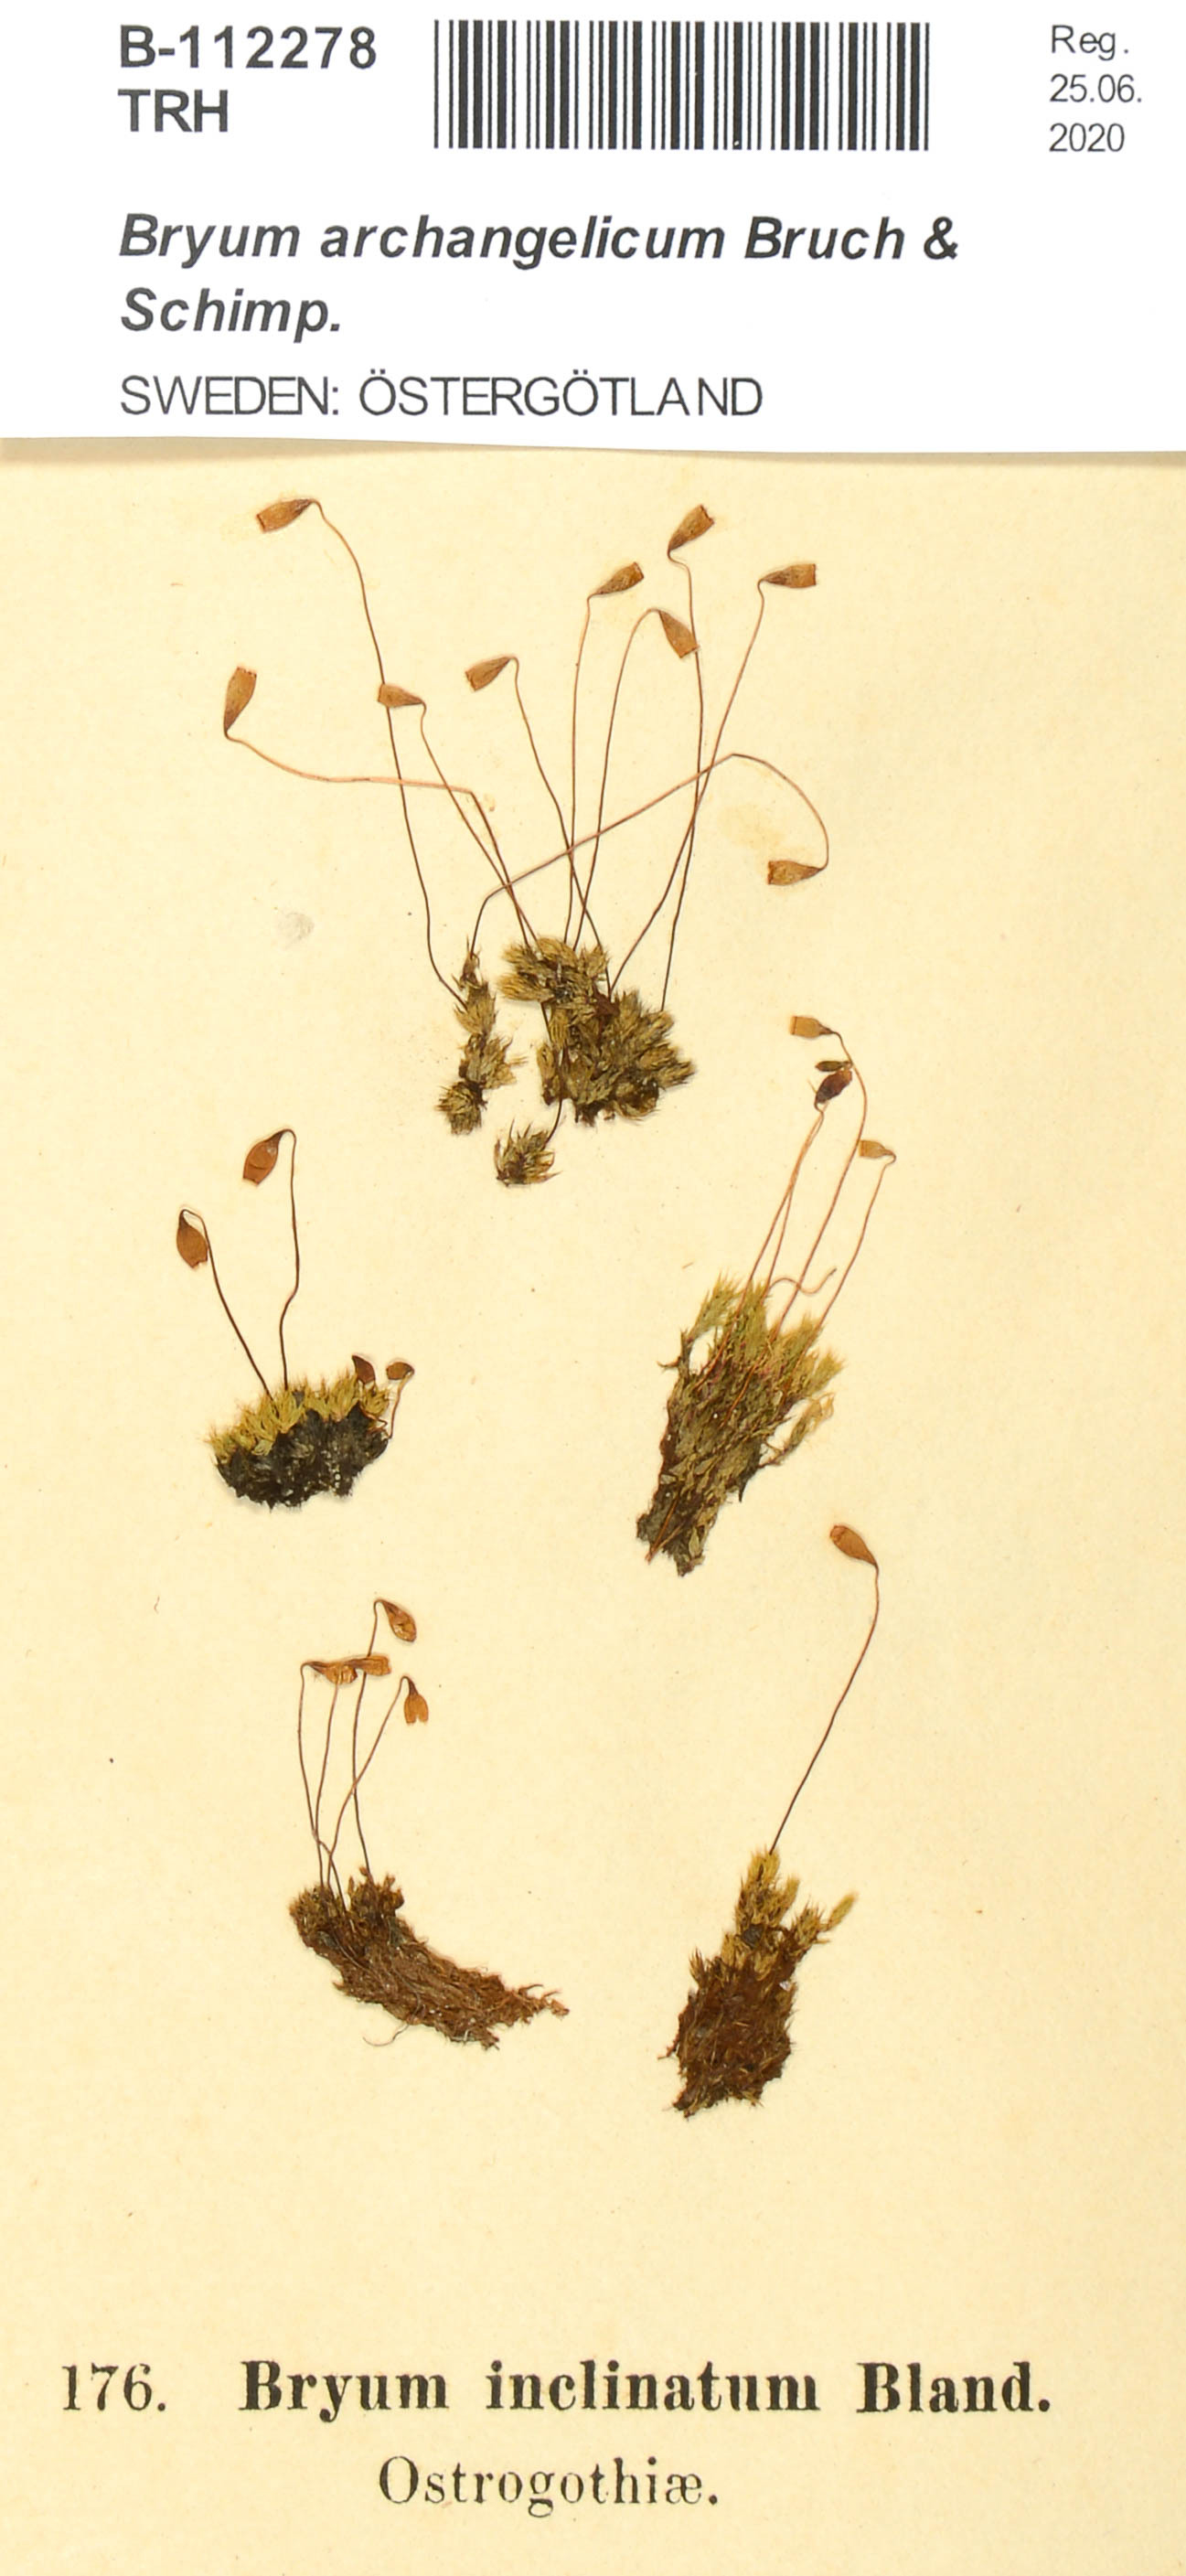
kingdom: Plantae
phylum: Bryophyta
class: Bryopsida
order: Bryales
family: Bryaceae
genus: Ptychostomum
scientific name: Ptychostomum inclinatum
